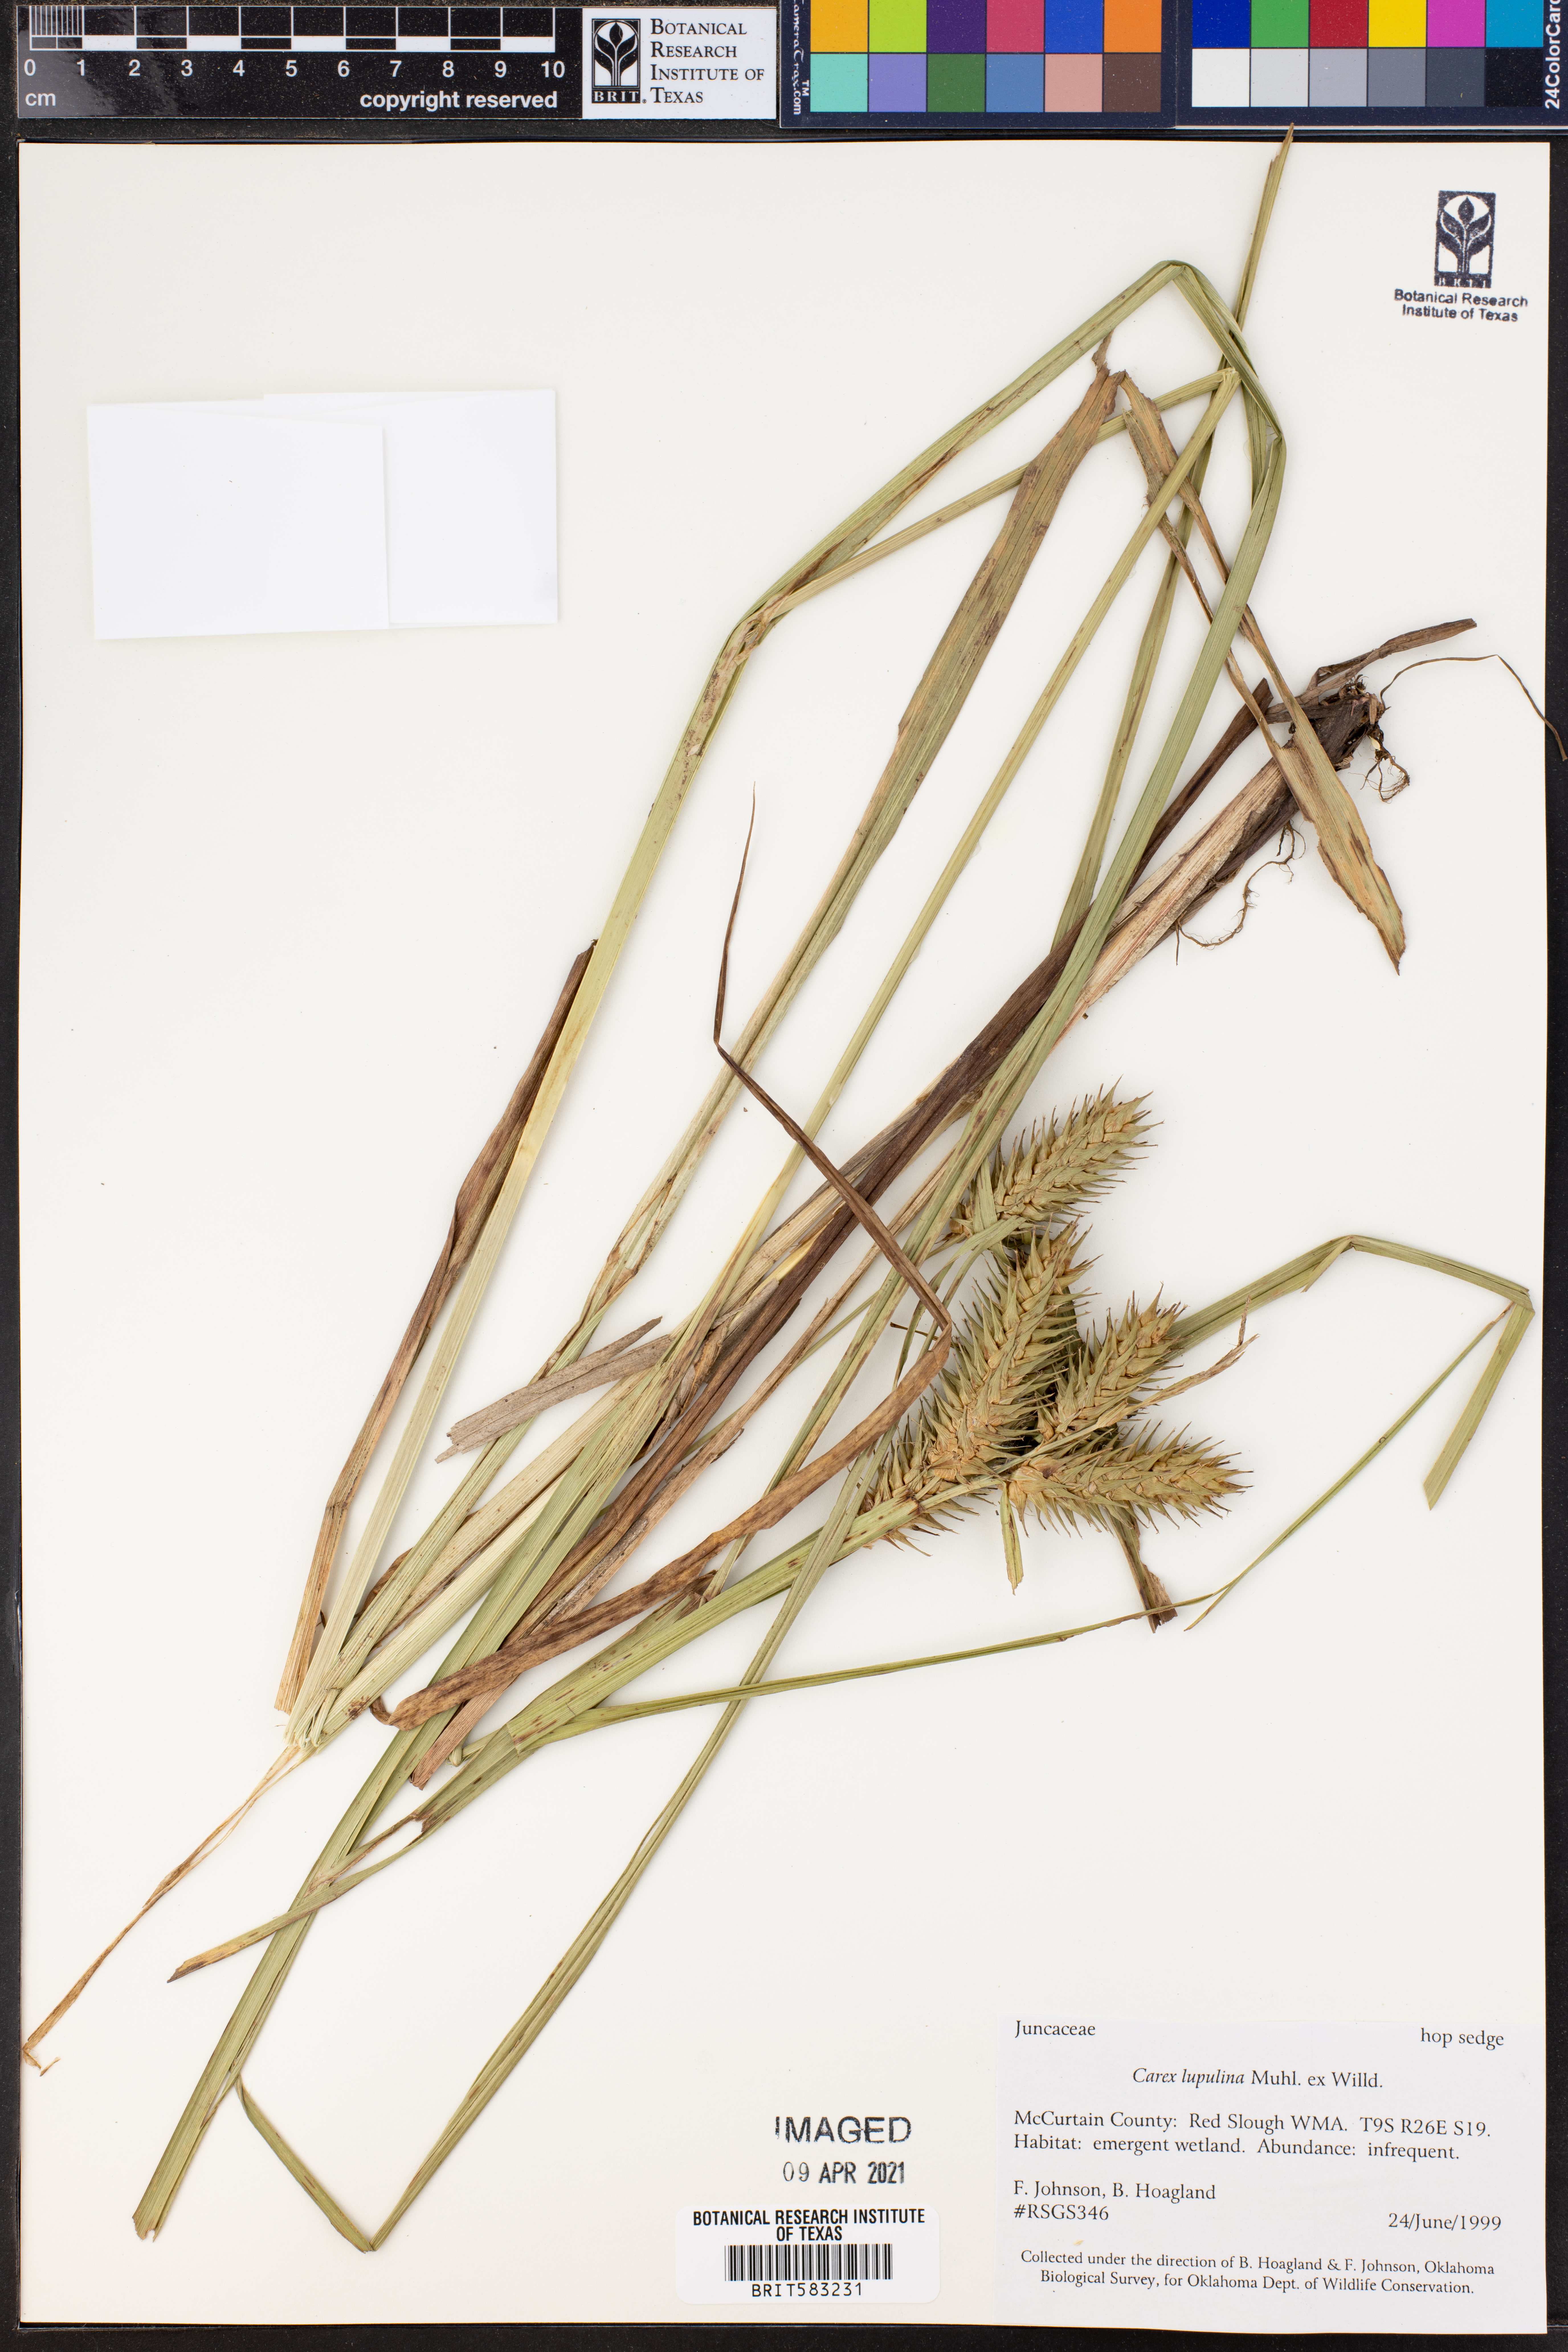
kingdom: Plantae
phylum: Tracheophyta
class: Liliopsida
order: Poales
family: Cyperaceae
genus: Carex
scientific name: Carex lupulina
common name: Hop sedge
